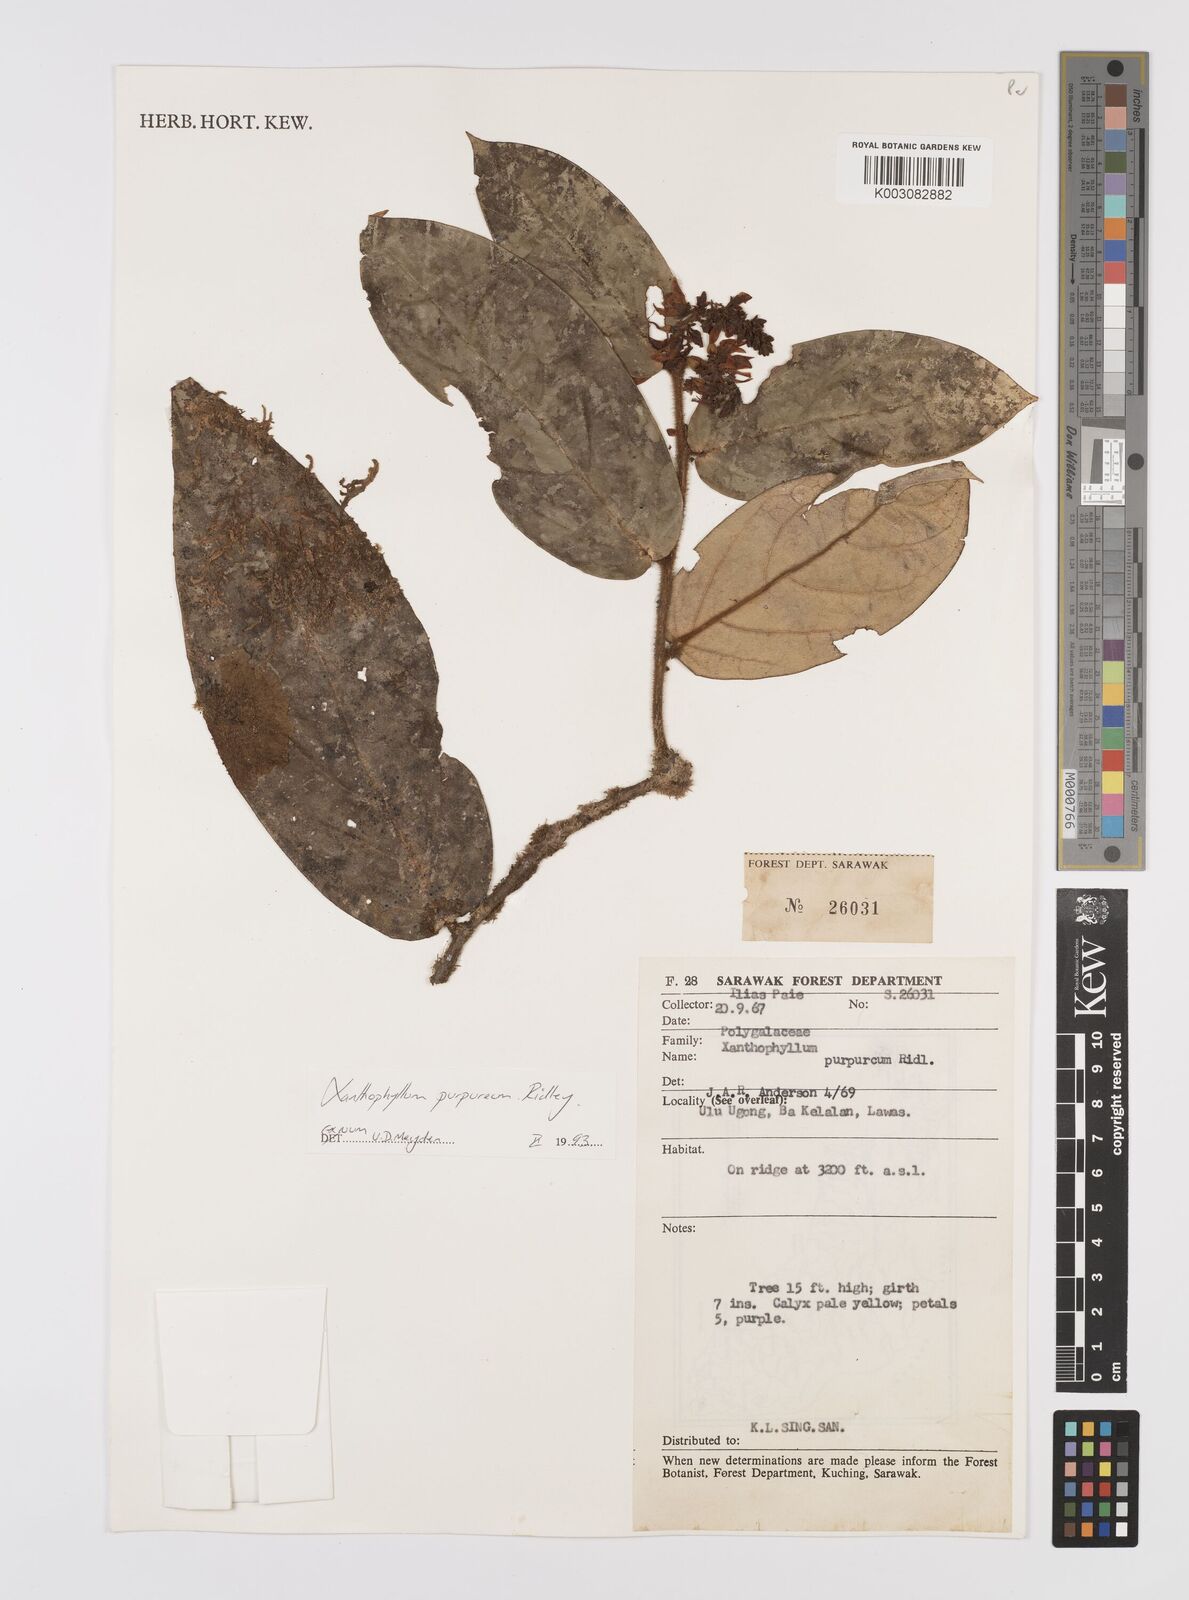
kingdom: Plantae
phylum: Tracheophyta
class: Magnoliopsida
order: Fabales
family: Polygalaceae
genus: Xanthophyllum
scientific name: Xanthophyllum purpureum
